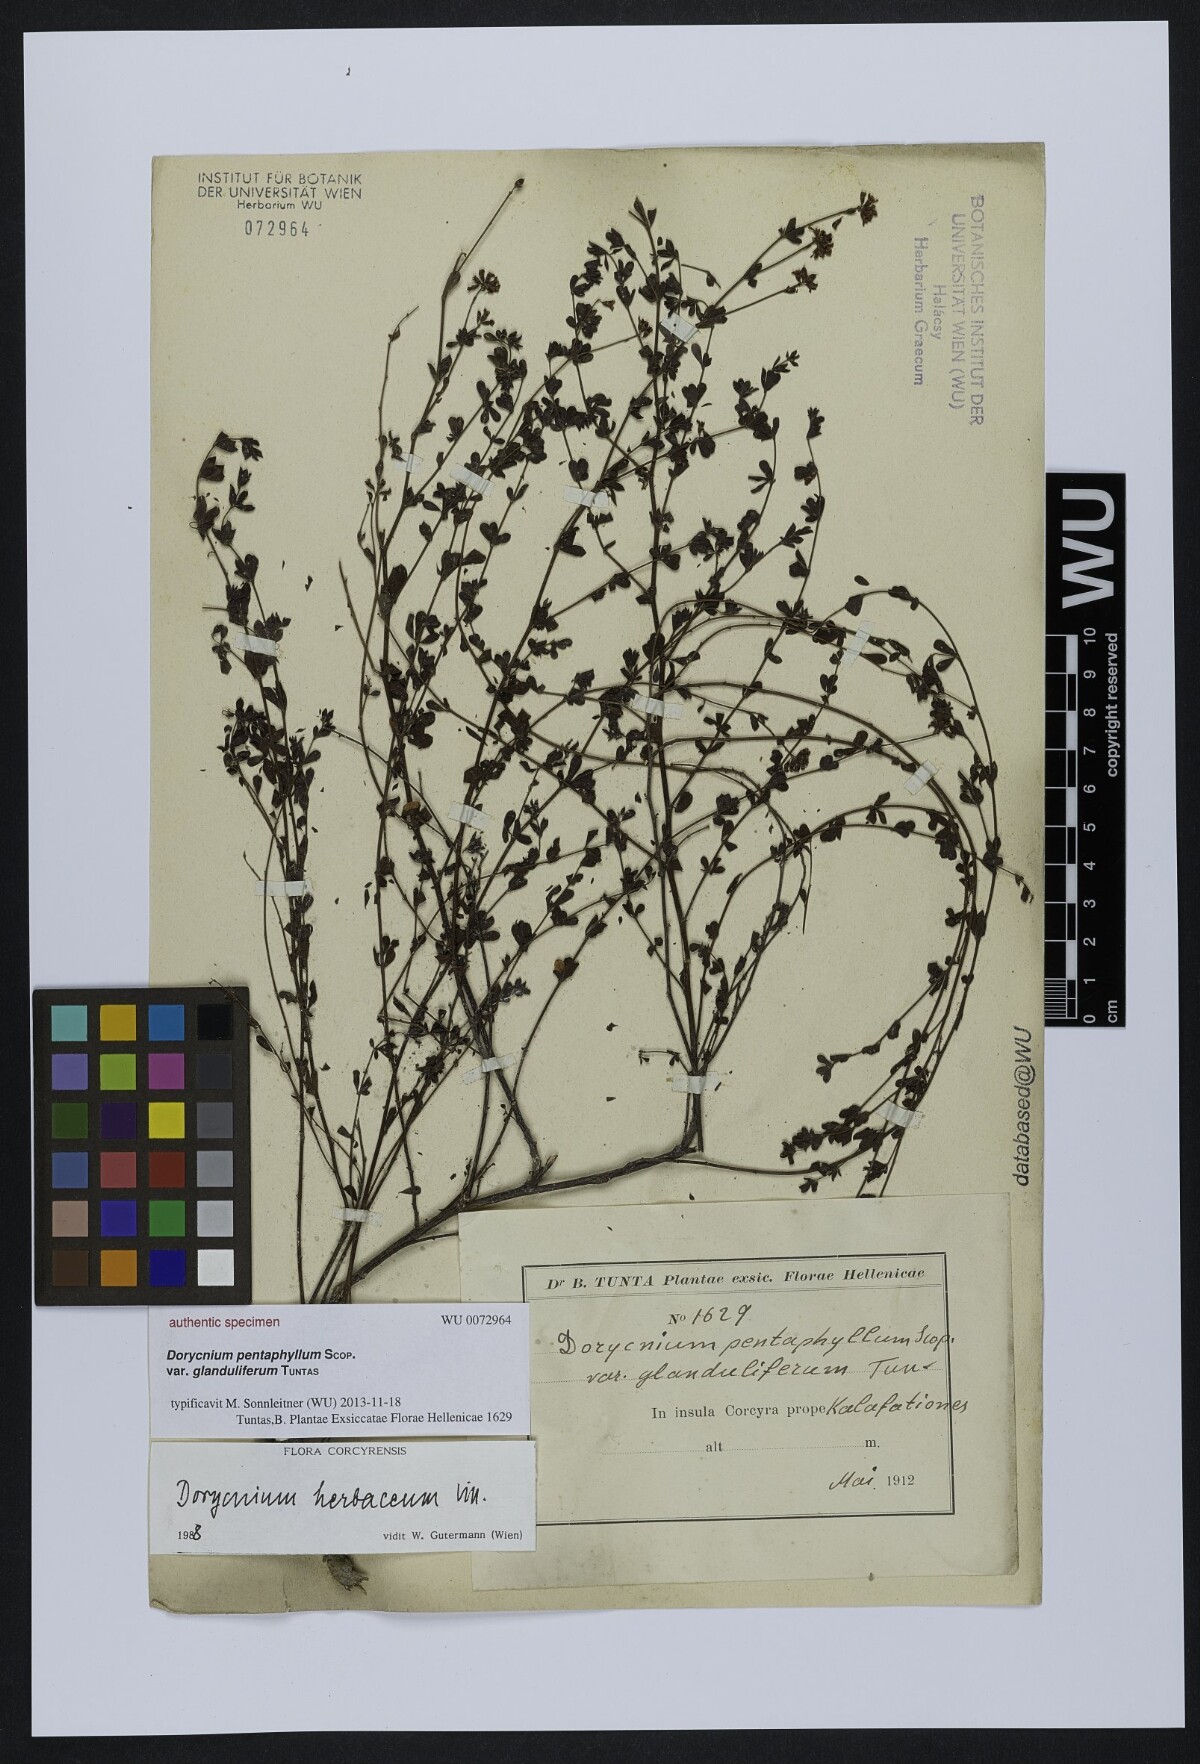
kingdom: Plantae
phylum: Tracheophyta
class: Magnoliopsida
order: Fabales
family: Fabaceae
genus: Lotus
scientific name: Lotus dorycnium
